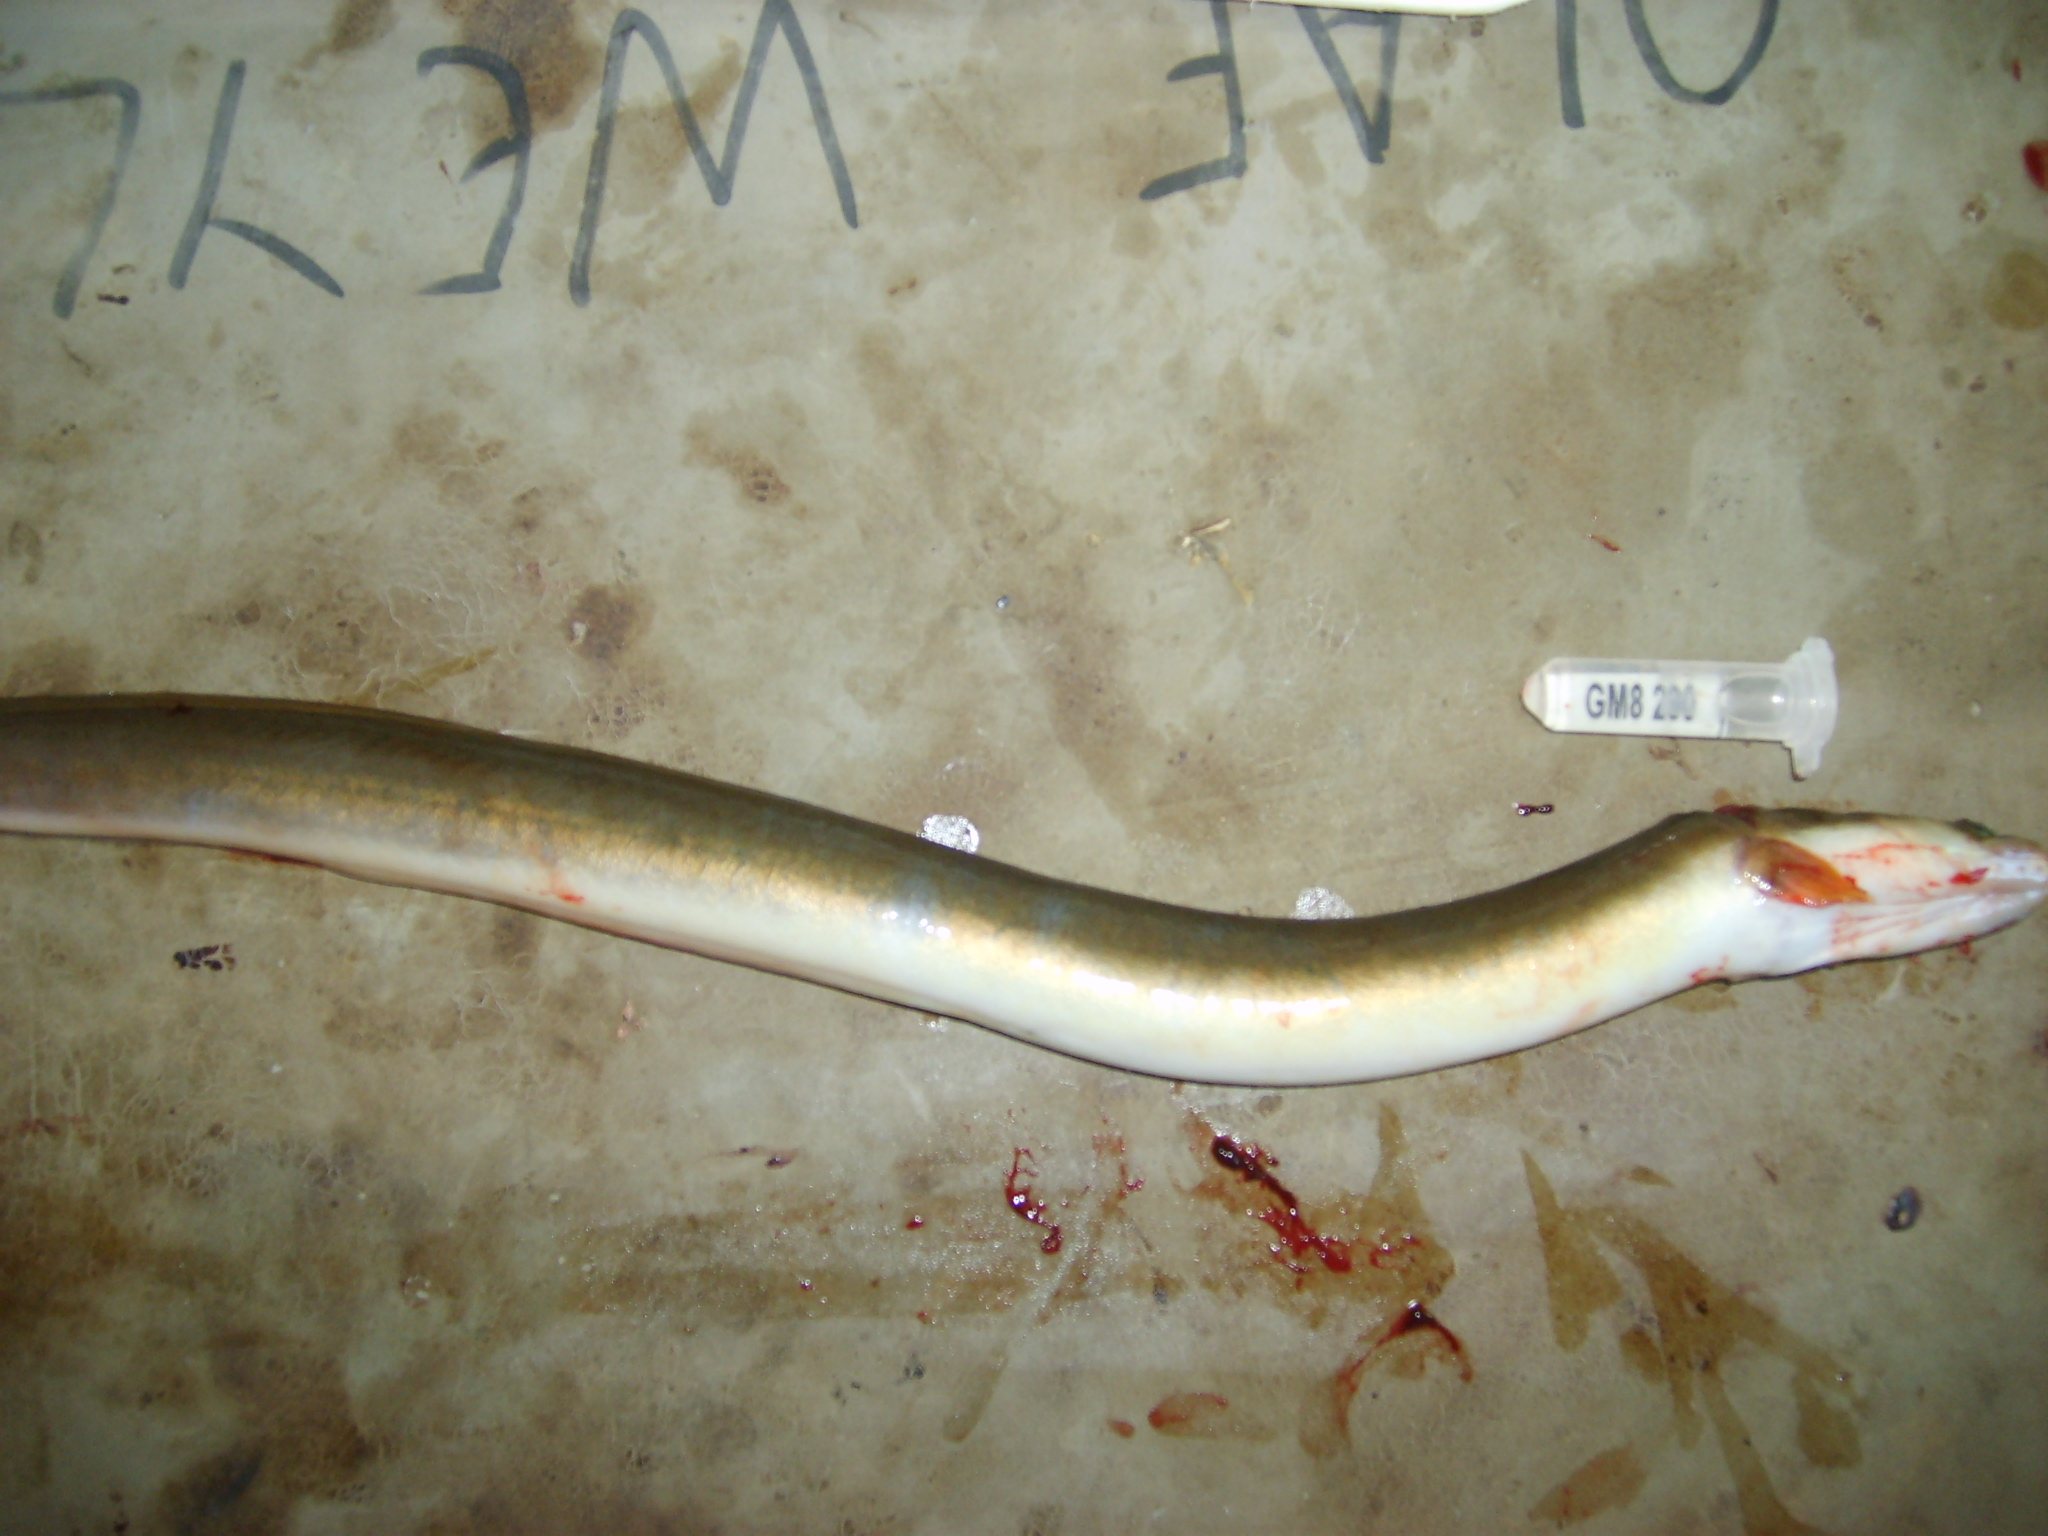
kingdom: Animalia
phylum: Chordata
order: Anguilliformes
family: Anguillidae
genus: Anguilla
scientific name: Anguilla mossambica
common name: African longfin eel
